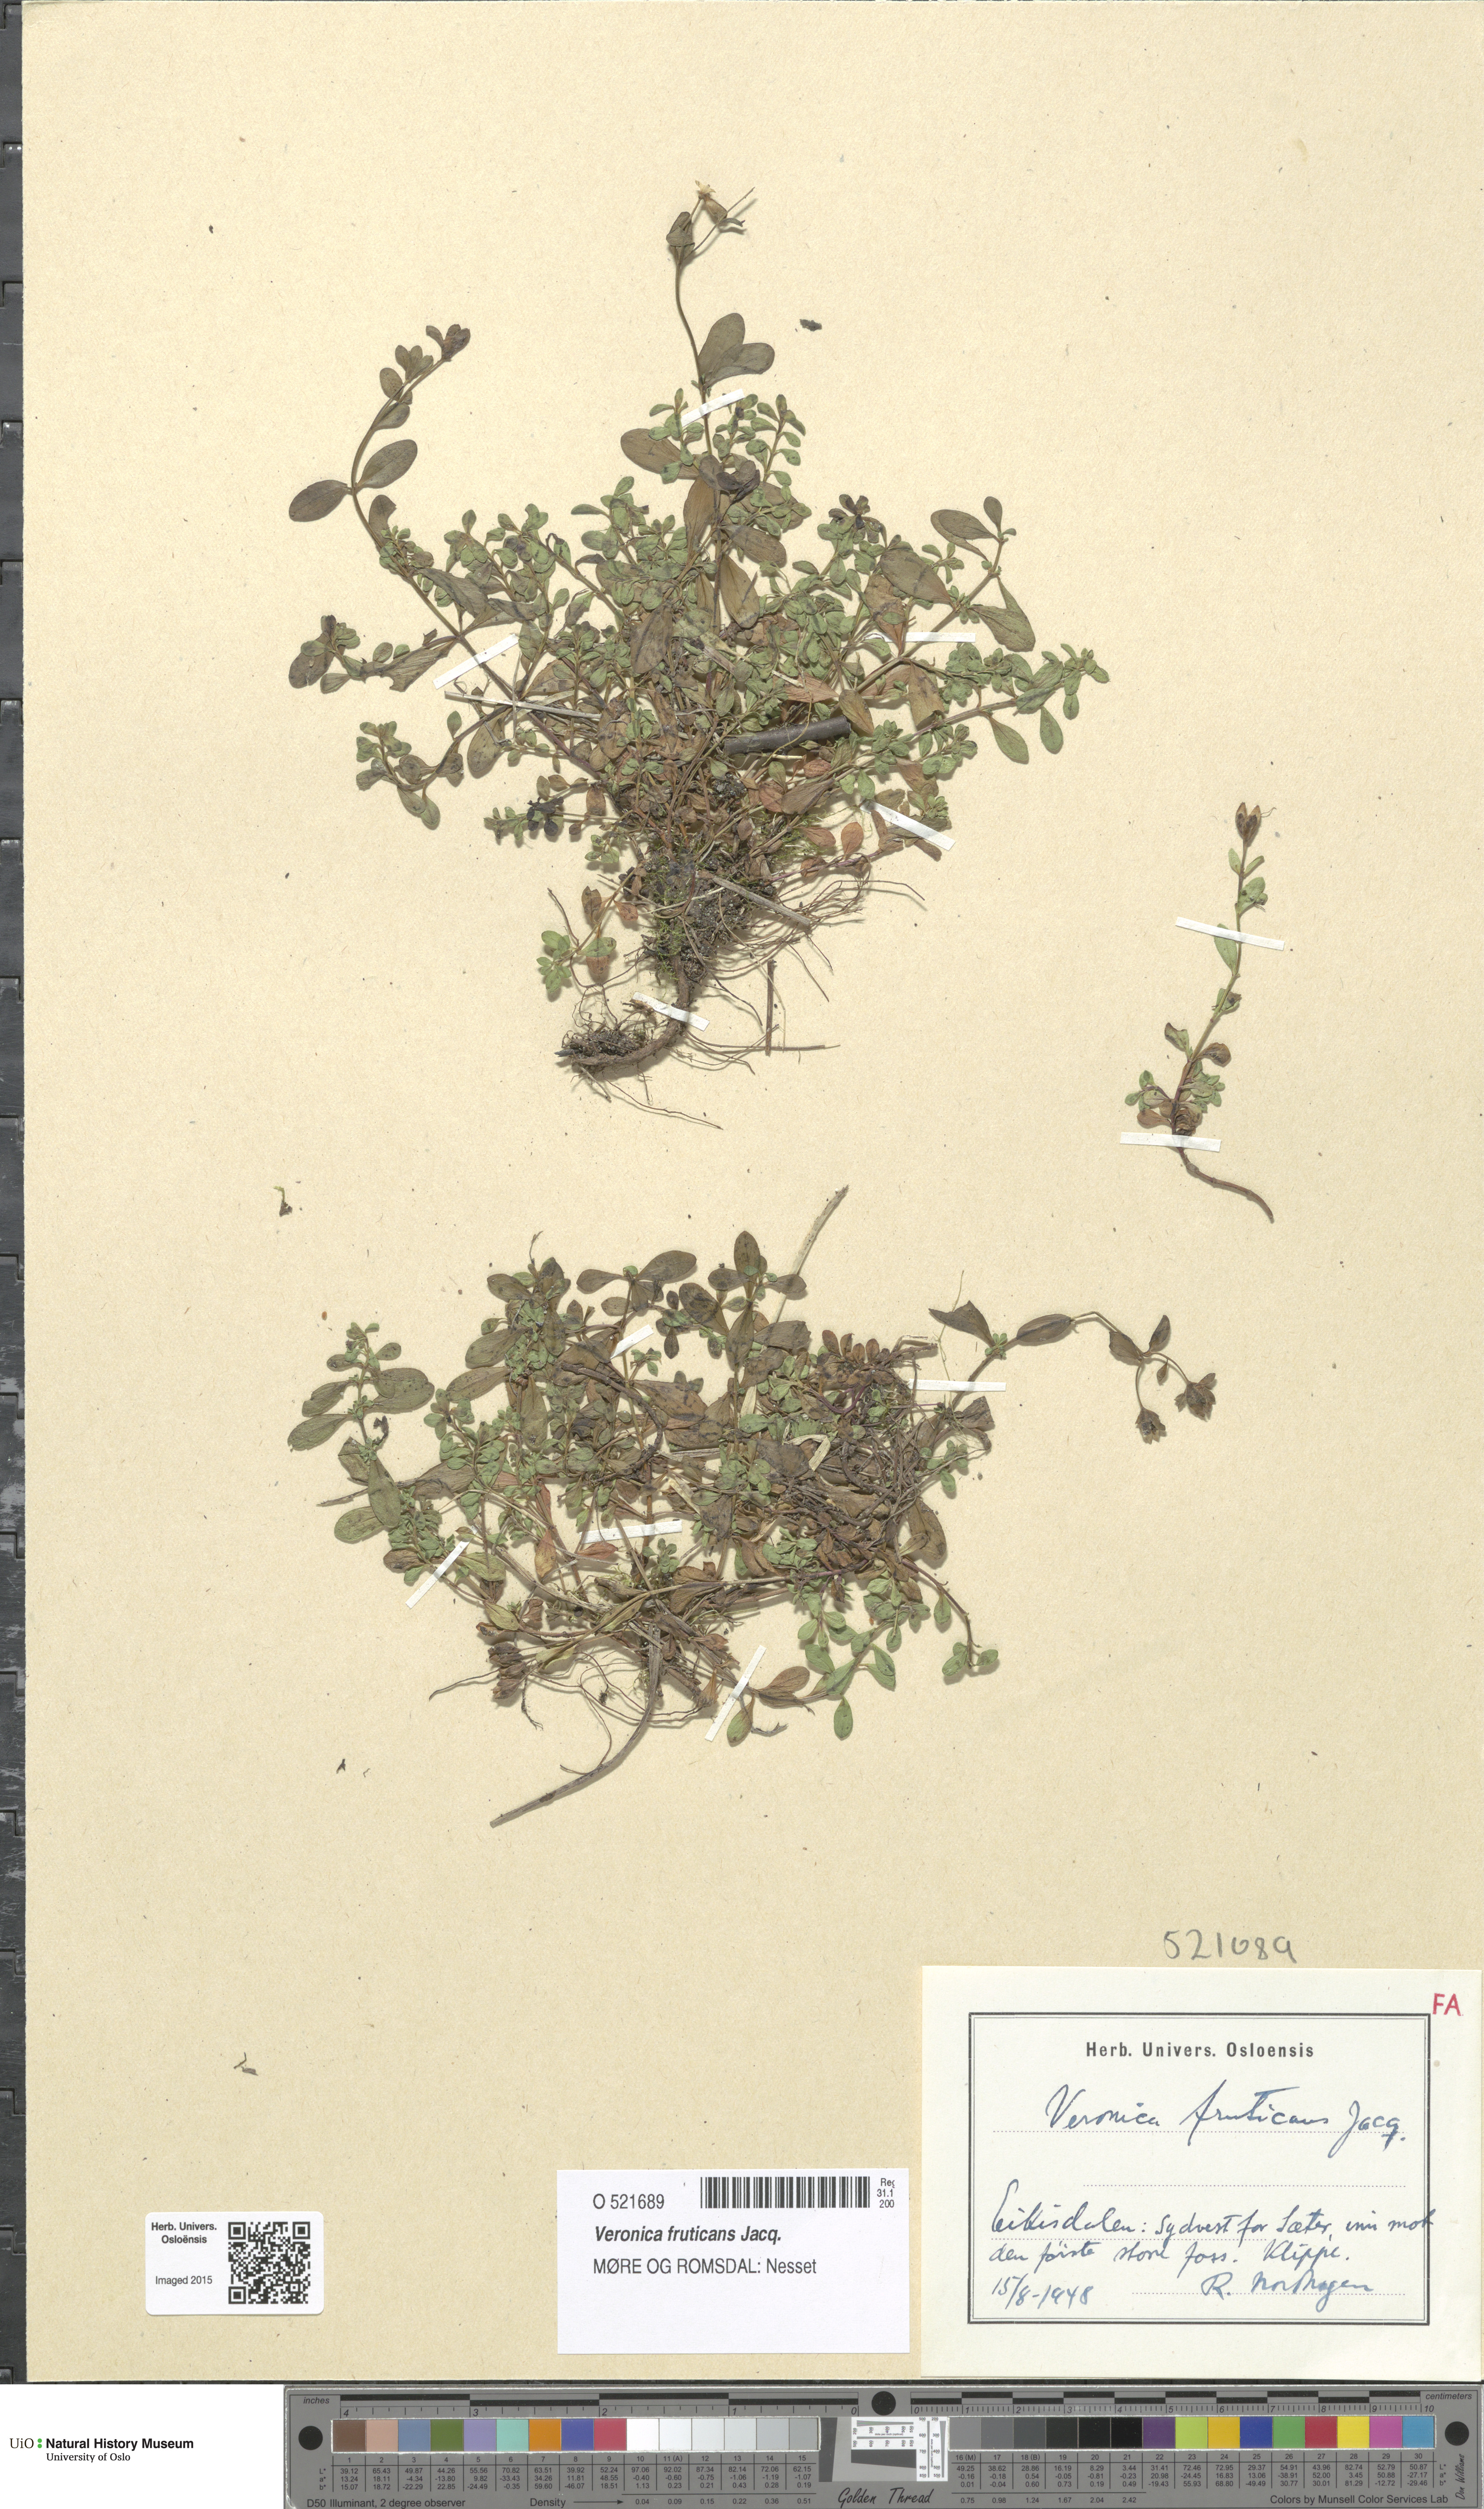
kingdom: Plantae
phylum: Tracheophyta
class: Magnoliopsida
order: Lamiales
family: Plantaginaceae
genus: Veronica
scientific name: Veronica fruticans
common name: Rock speedwell
